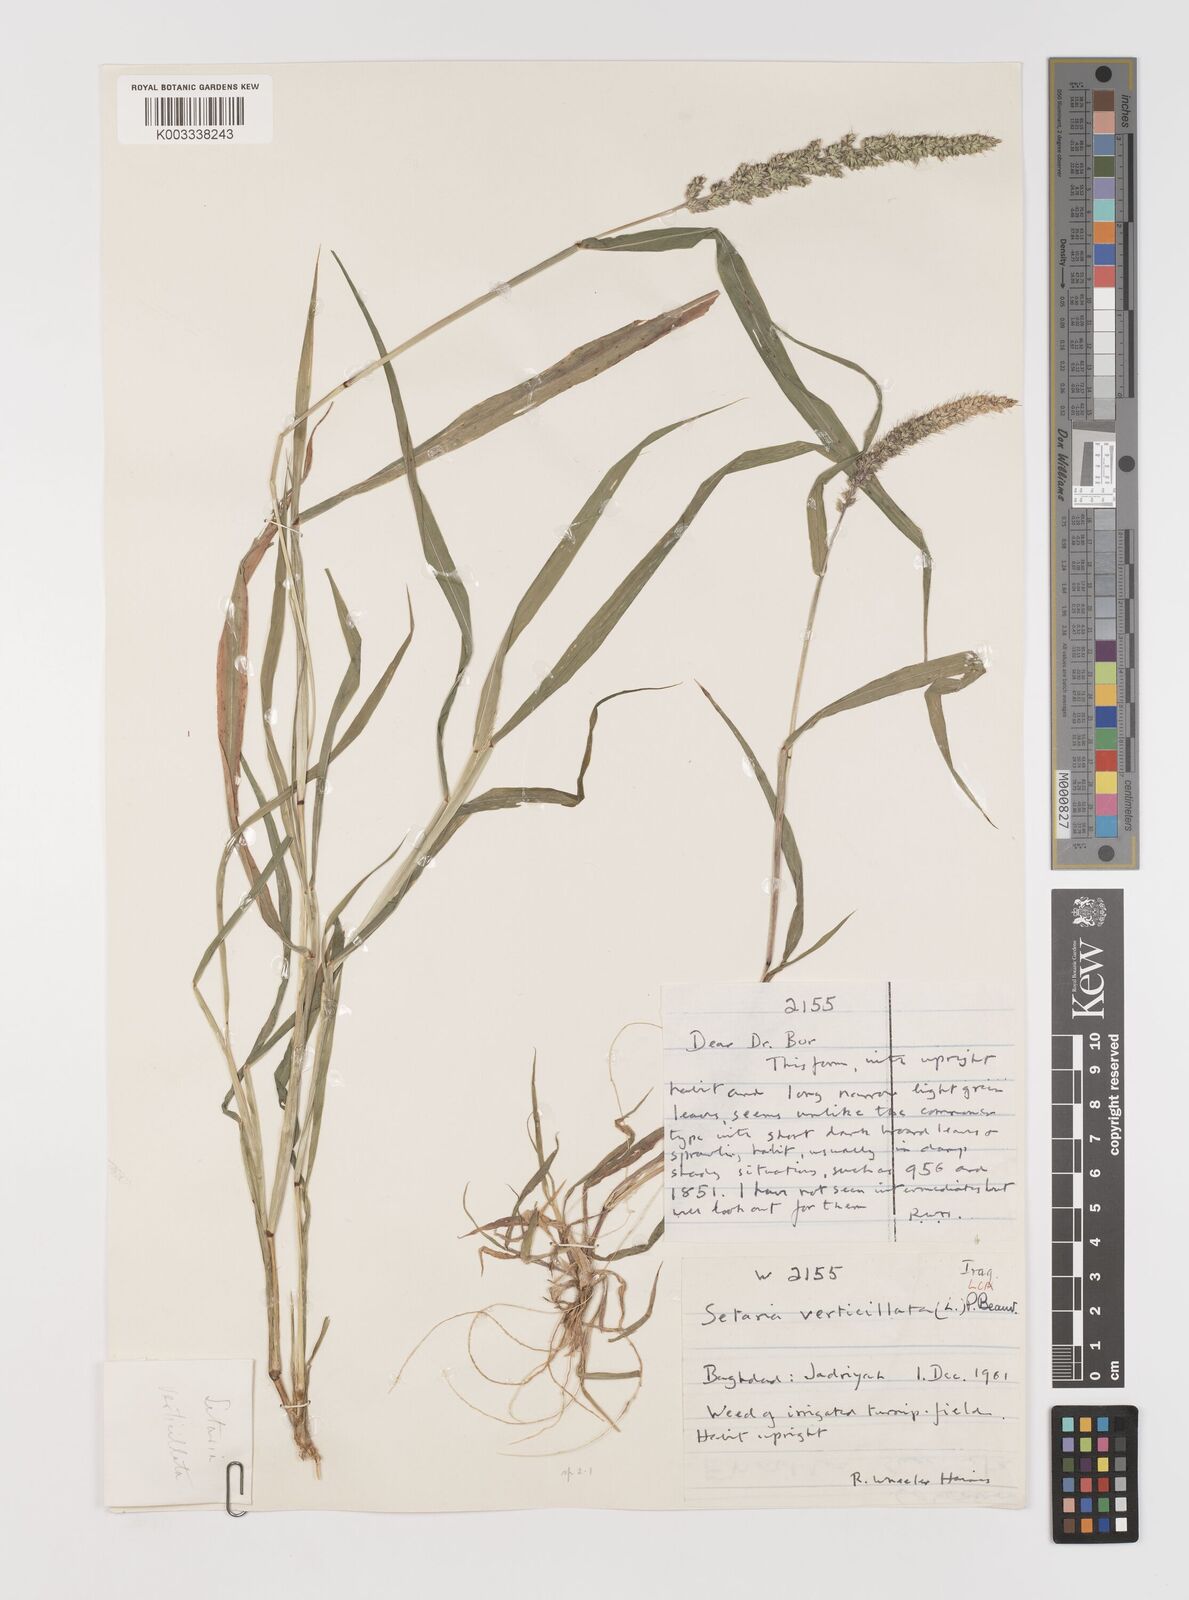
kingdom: Plantae
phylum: Tracheophyta
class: Liliopsida
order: Poales
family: Poaceae
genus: Setaria
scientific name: Setaria verticillata
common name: Hooked bristlegrass
